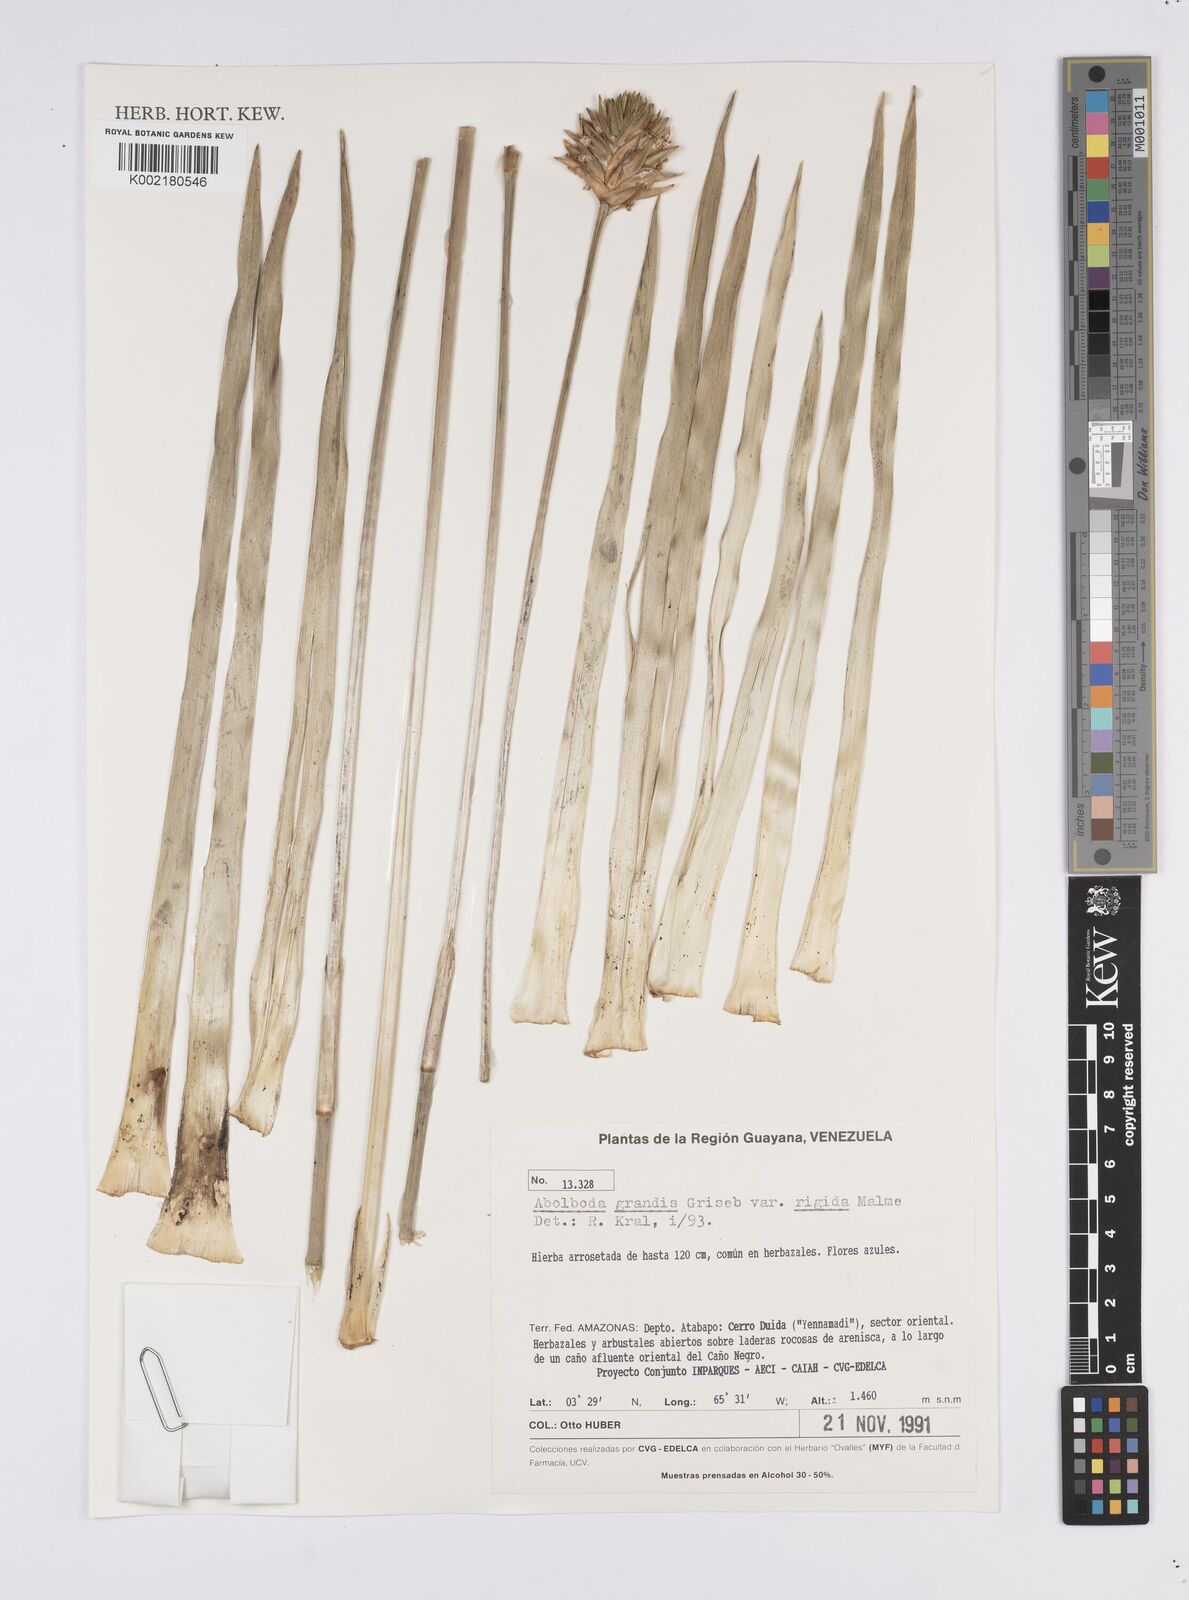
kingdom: Plantae
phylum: Tracheophyta
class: Liliopsida
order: Poales
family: Xyridaceae
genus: Abolboda
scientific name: Abolboda grandis
